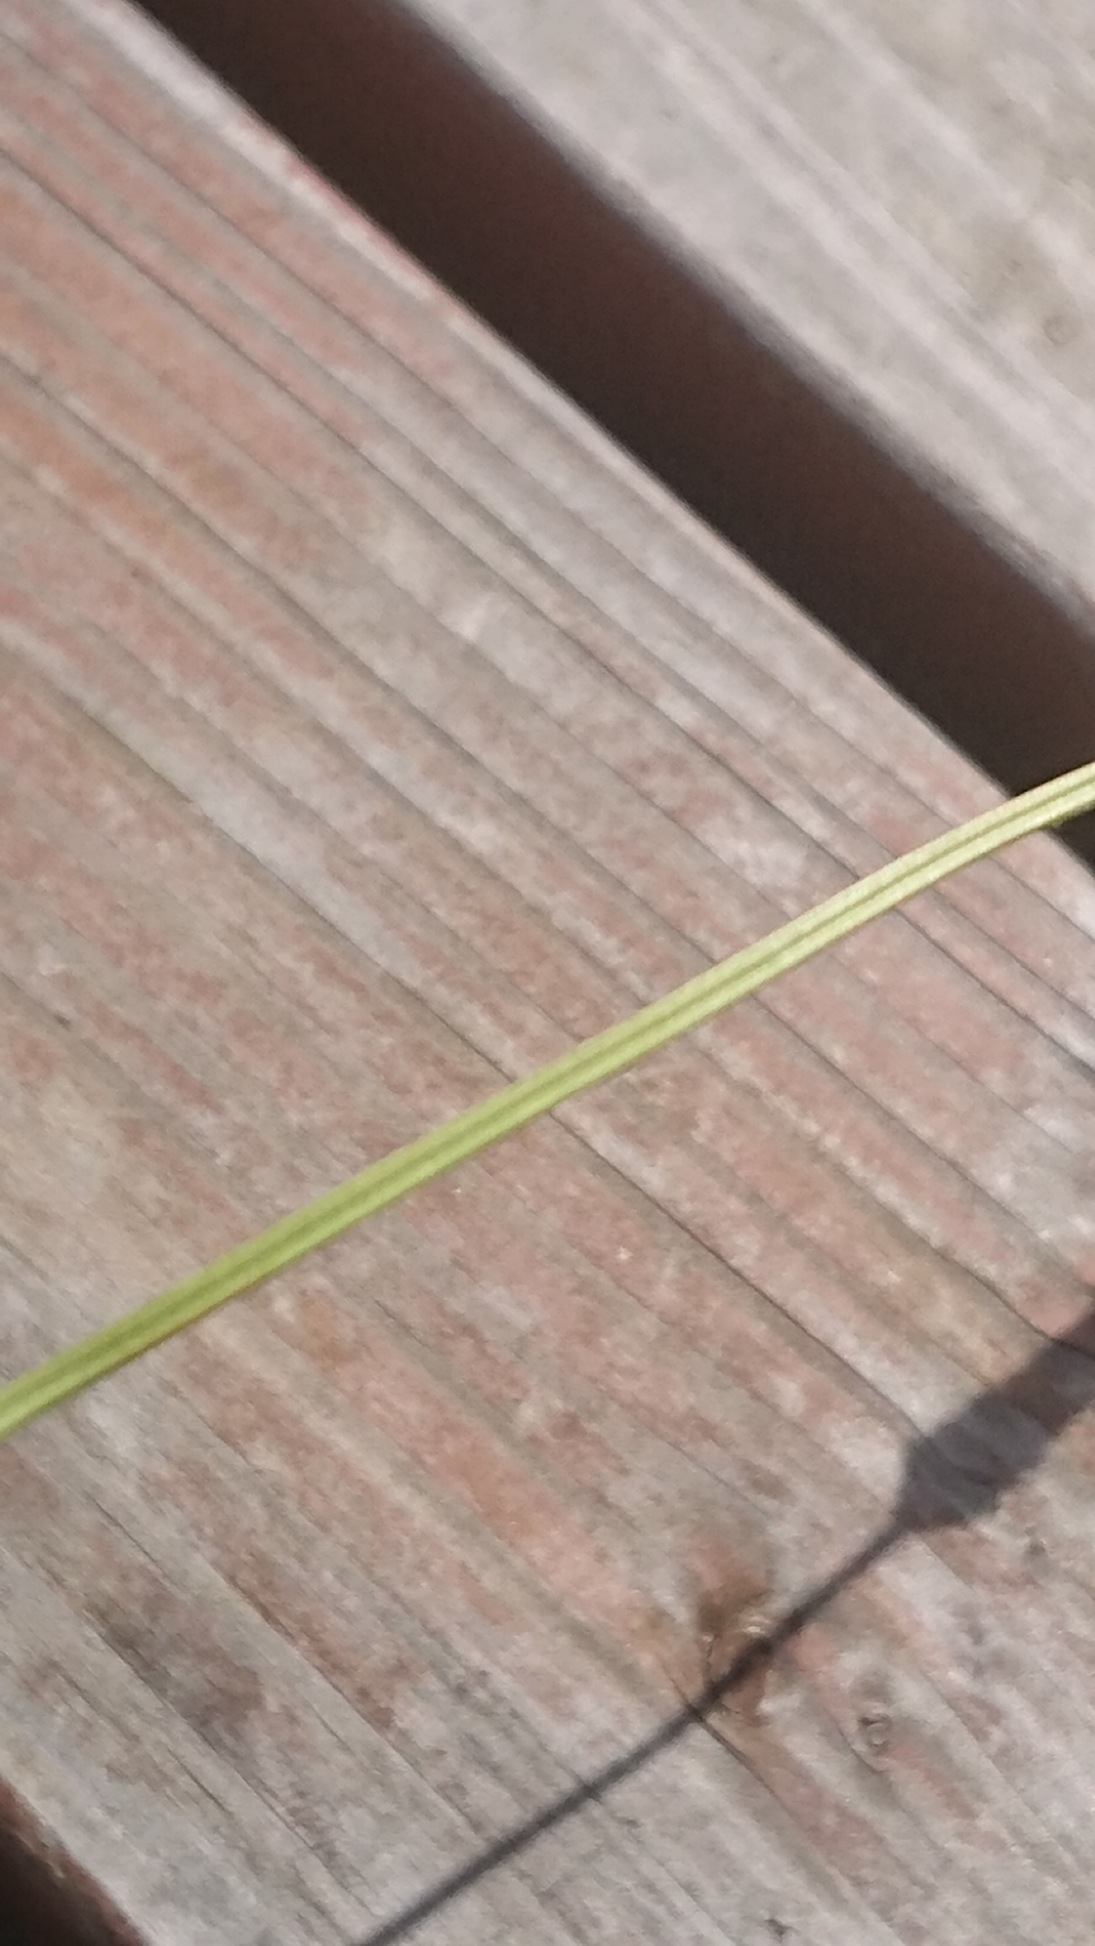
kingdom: Plantae
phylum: Tracheophyta
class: Magnoliopsida
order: Lamiales
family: Plantaginaceae
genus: Plantago
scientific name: Plantago lanceolata
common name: Lancet-vejbred
